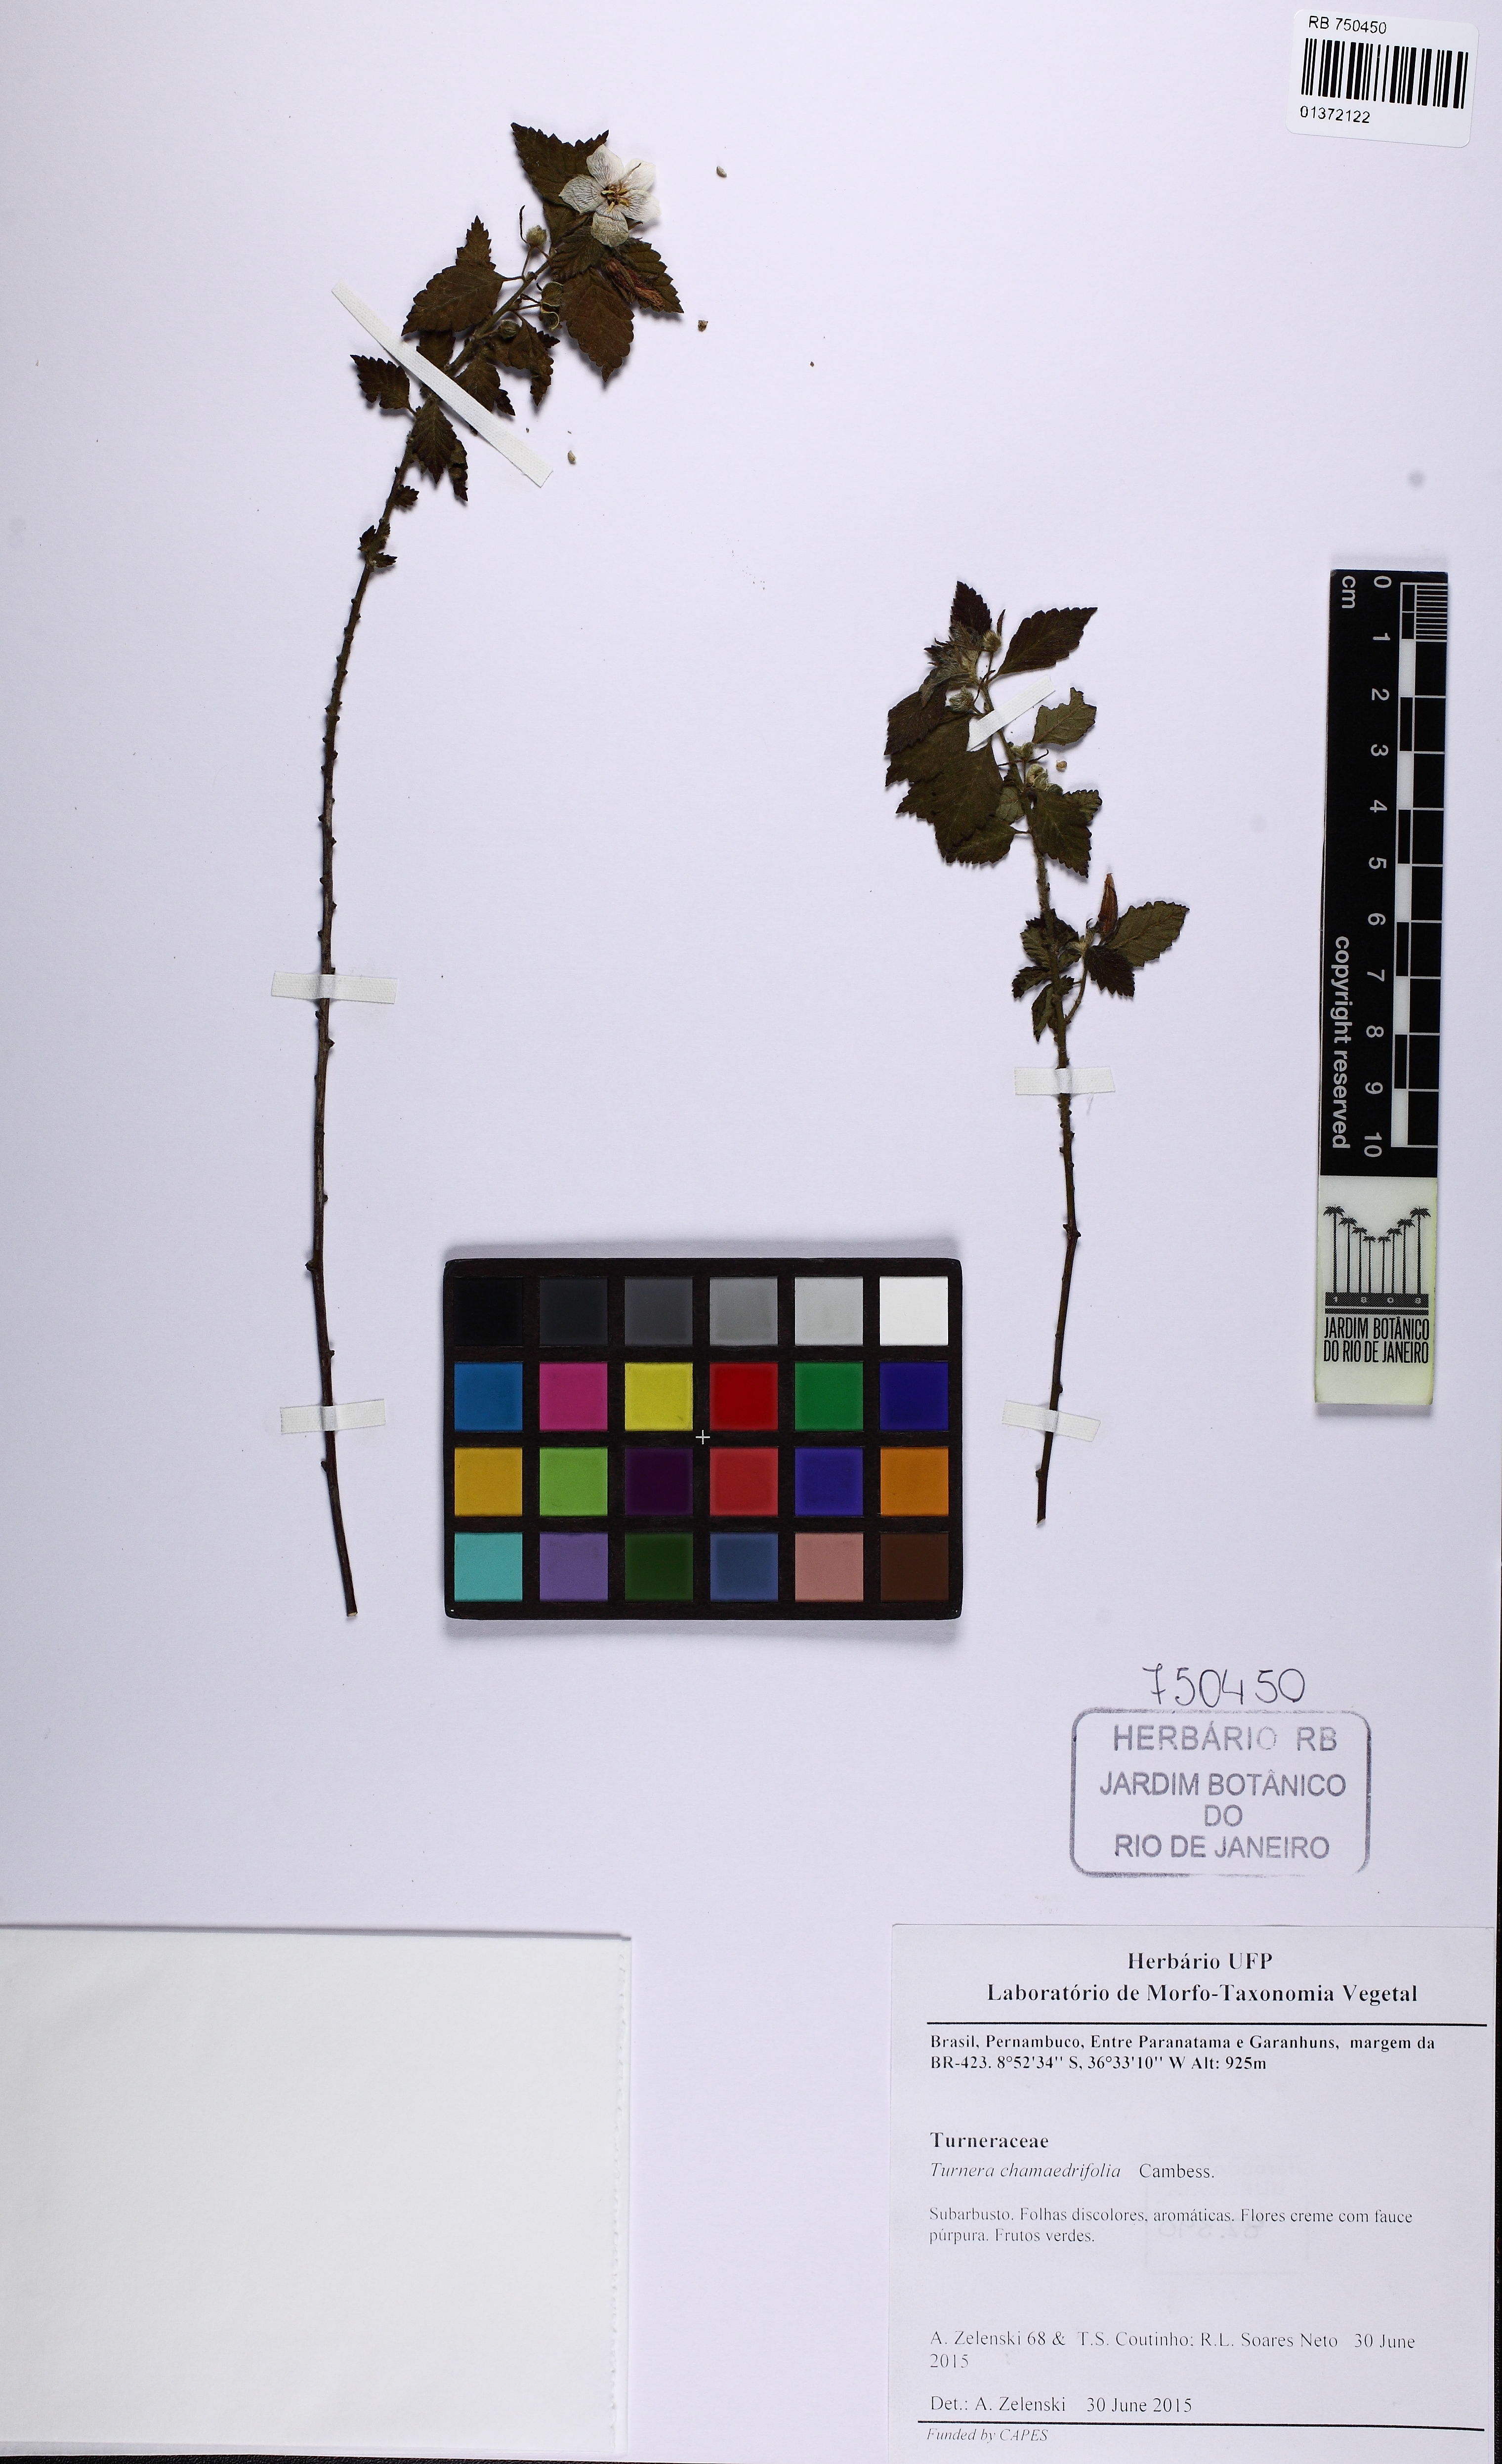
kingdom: Plantae
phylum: Tracheophyta
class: Magnoliopsida
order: Malpighiales
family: Turneraceae
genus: Turnera
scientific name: Turnera chamaedrifolia
